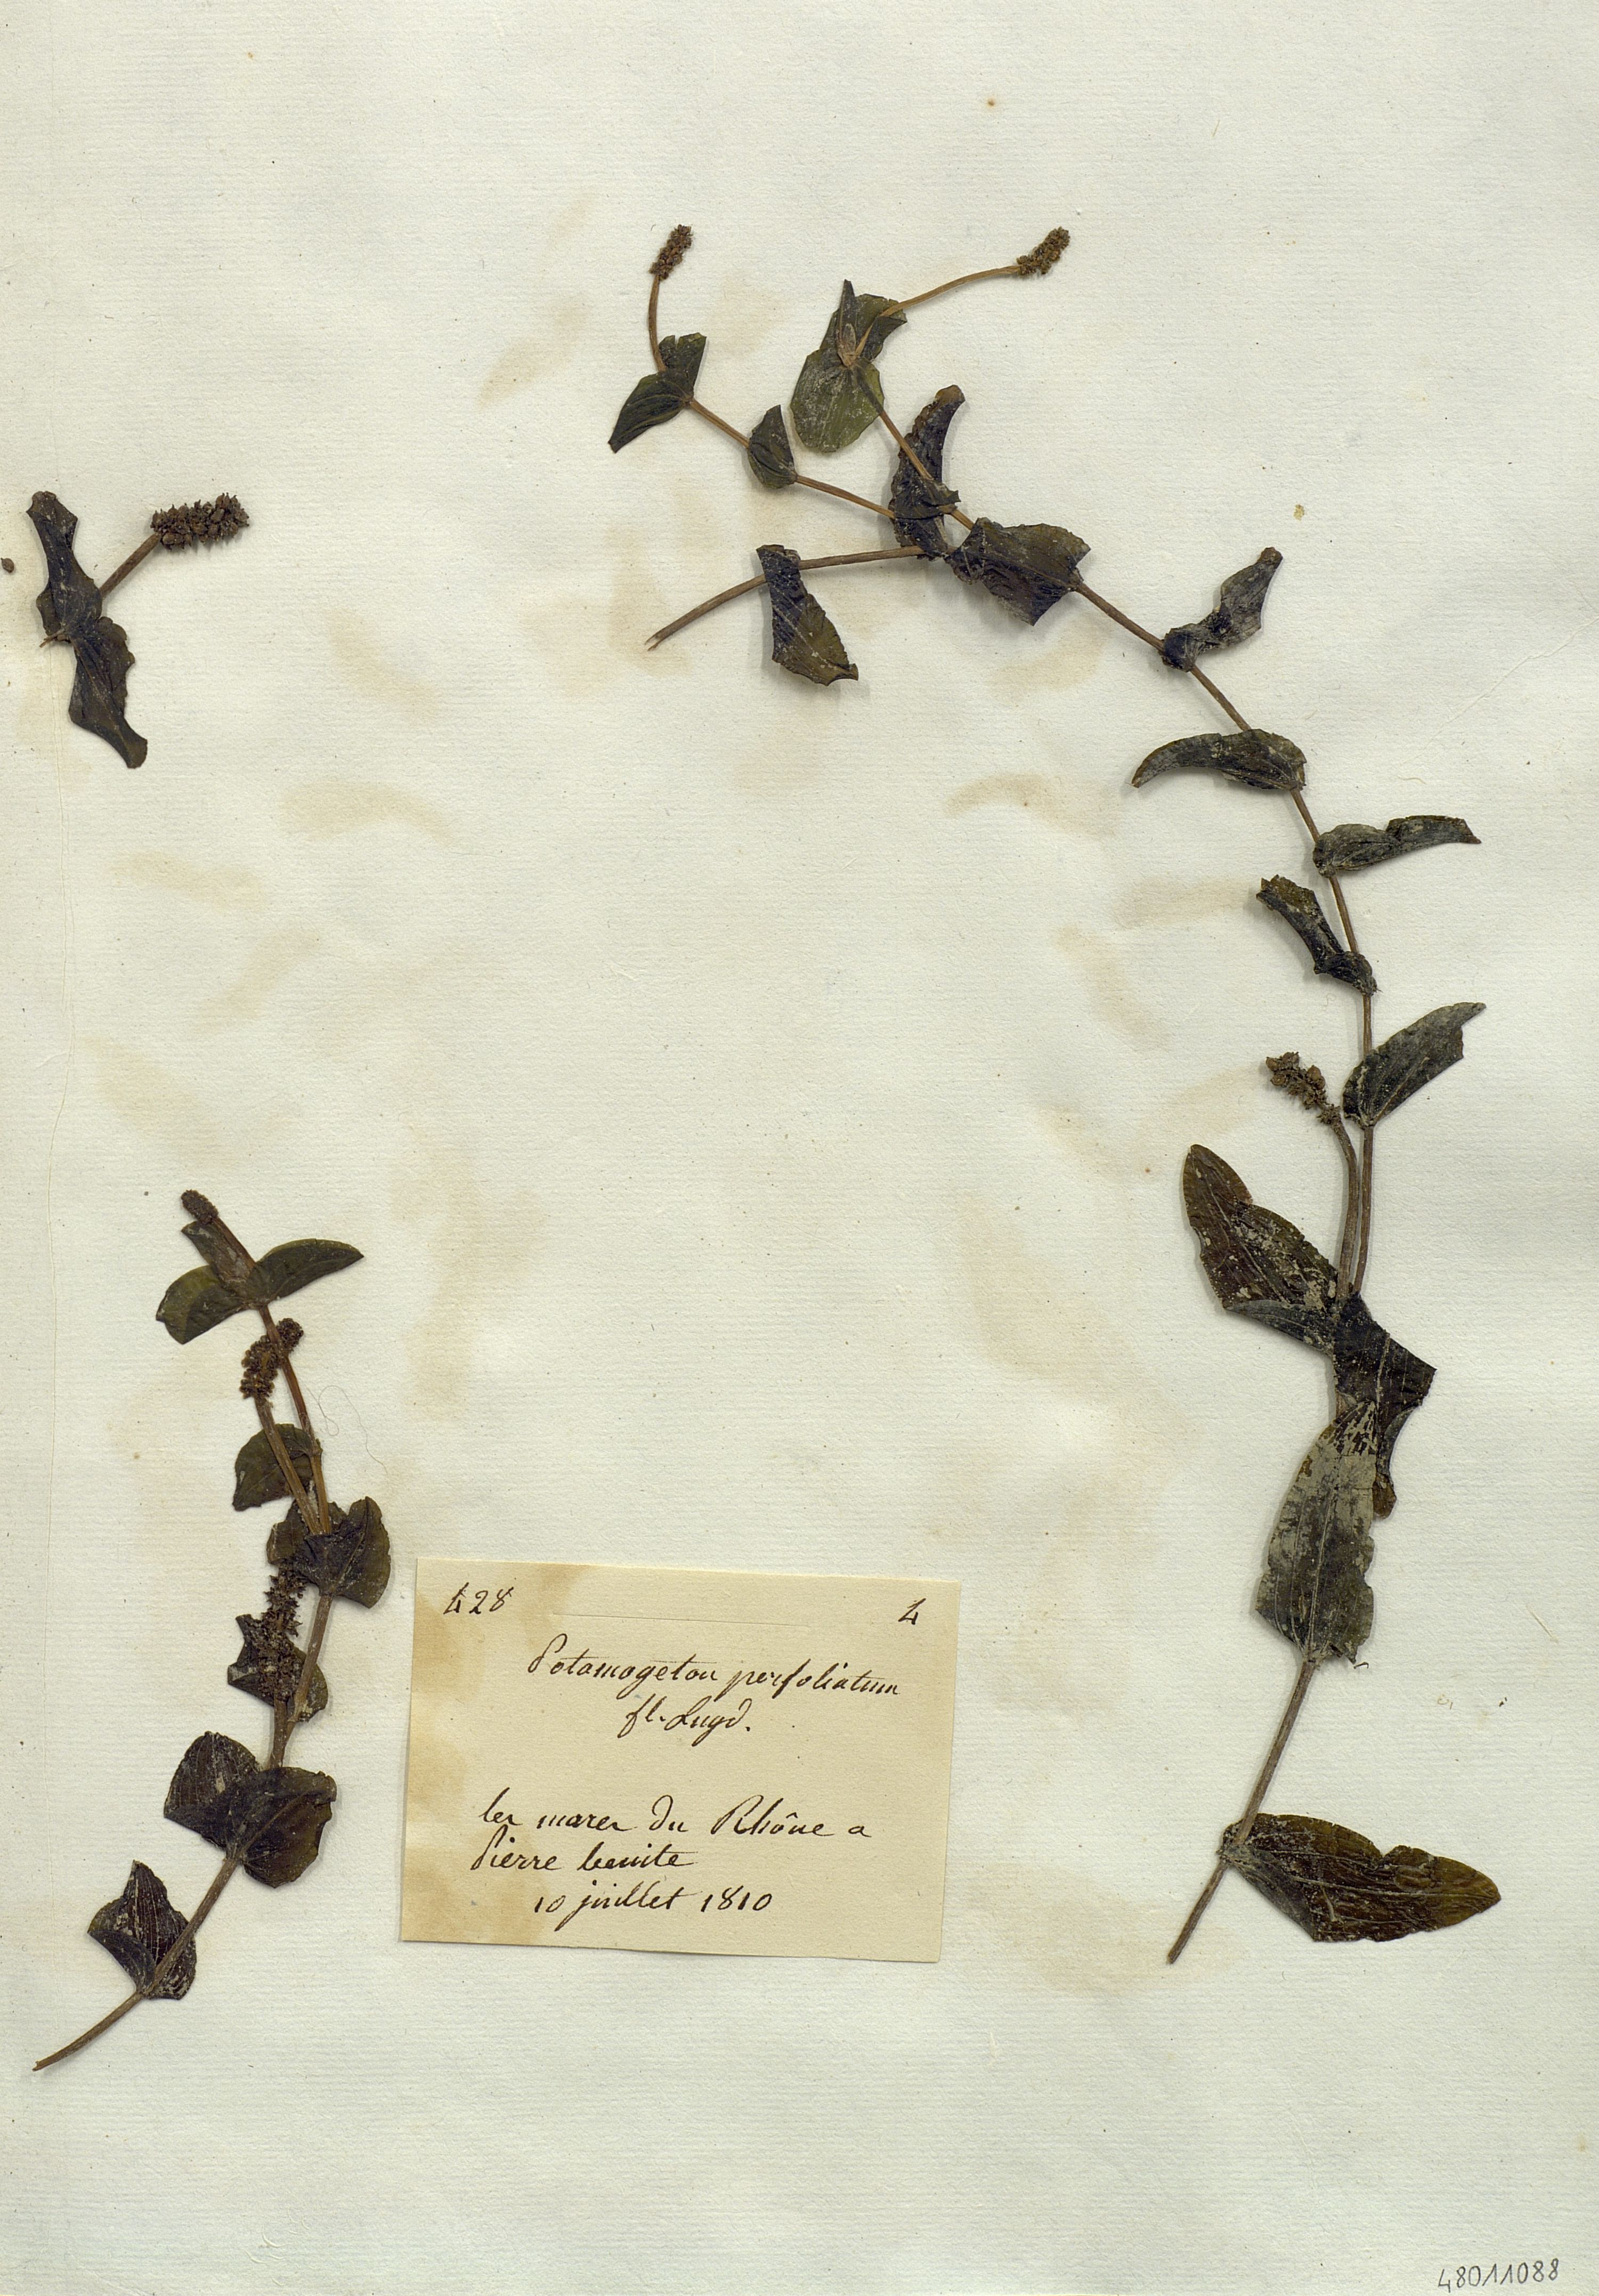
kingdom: Plantae
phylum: Tracheophyta
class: Liliopsida
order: Alismatales
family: Potamogetonaceae
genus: Potamogeton
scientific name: Potamogeton perfoliatus
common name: Perfoliate pondweed
